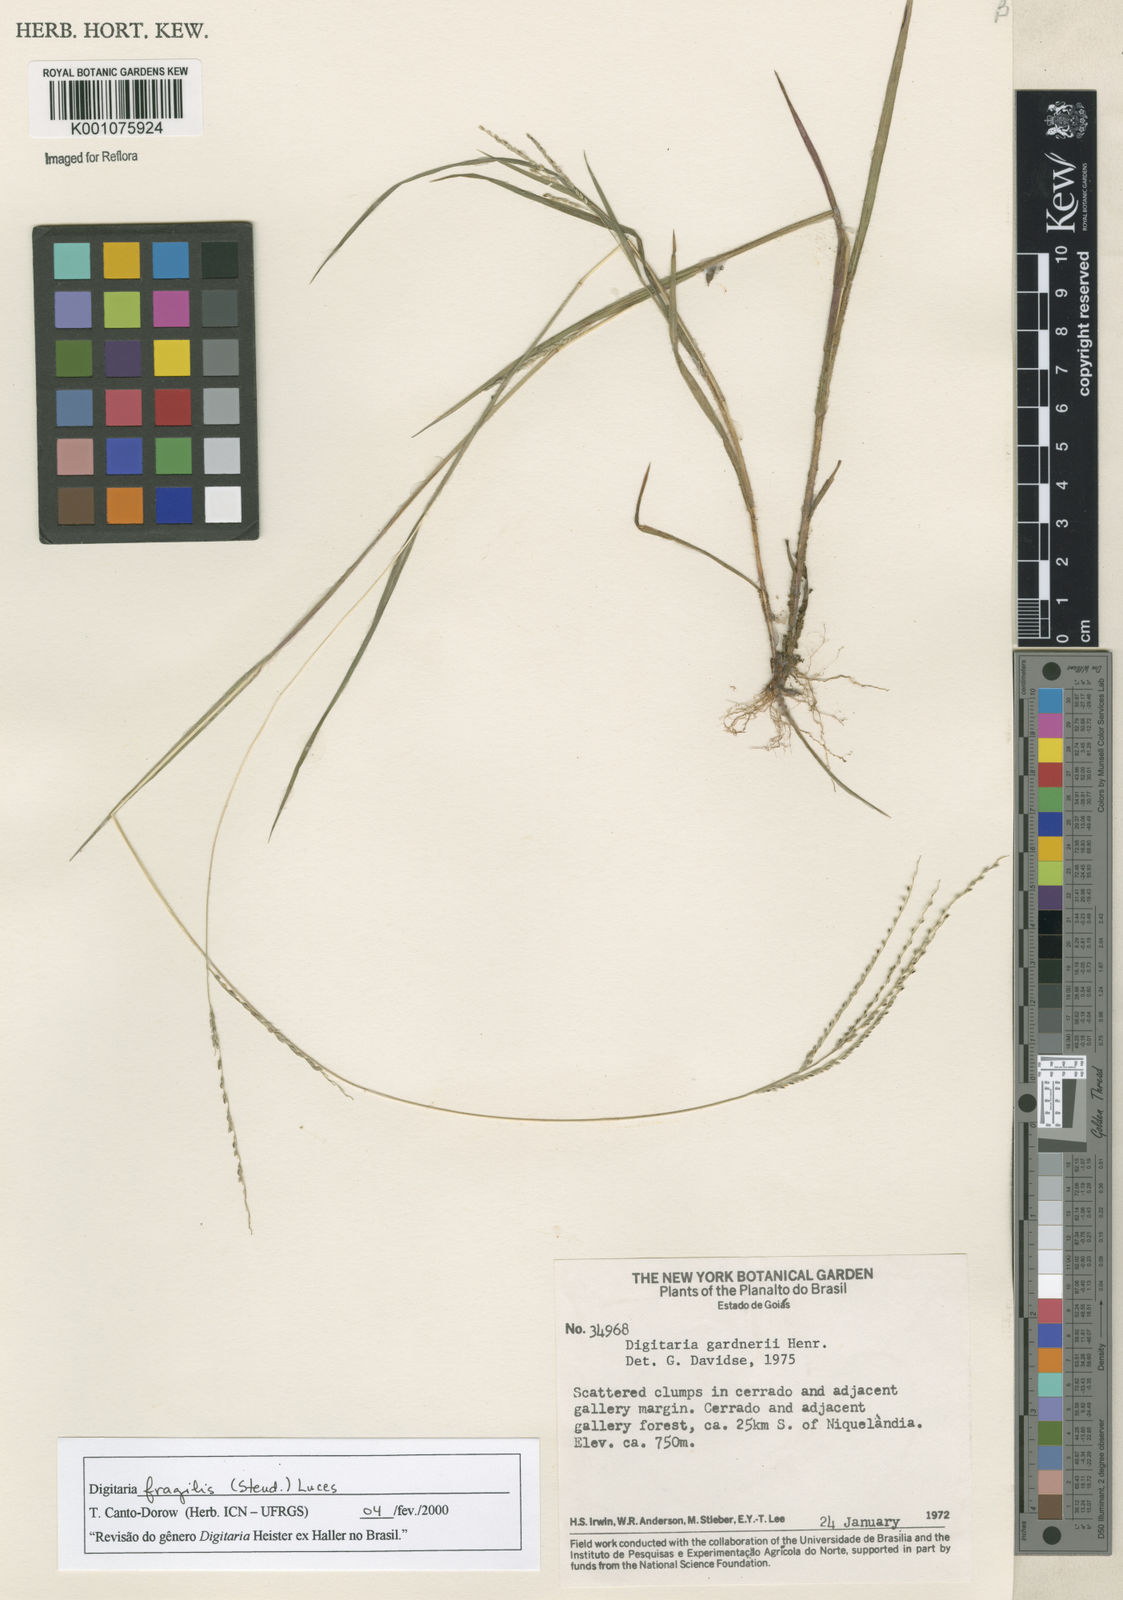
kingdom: Plantae
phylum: Tracheophyta
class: Liliopsida
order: Poales
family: Poaceae
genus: Digitaria
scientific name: Digitaria fragilis
